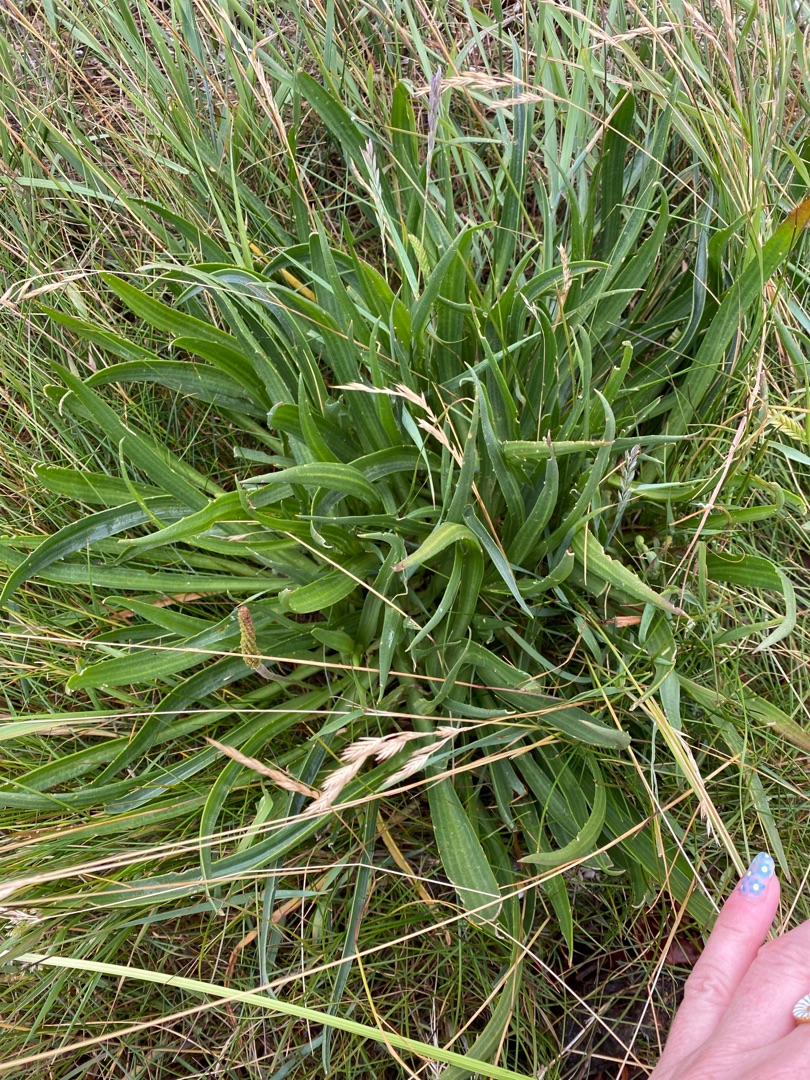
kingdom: Plantae
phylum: Tracheophyta
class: Magnoliopsida
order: Lamiales
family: Plantaginaceae
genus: Plantago
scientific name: Plantago maritima
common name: Strand-vejbred
